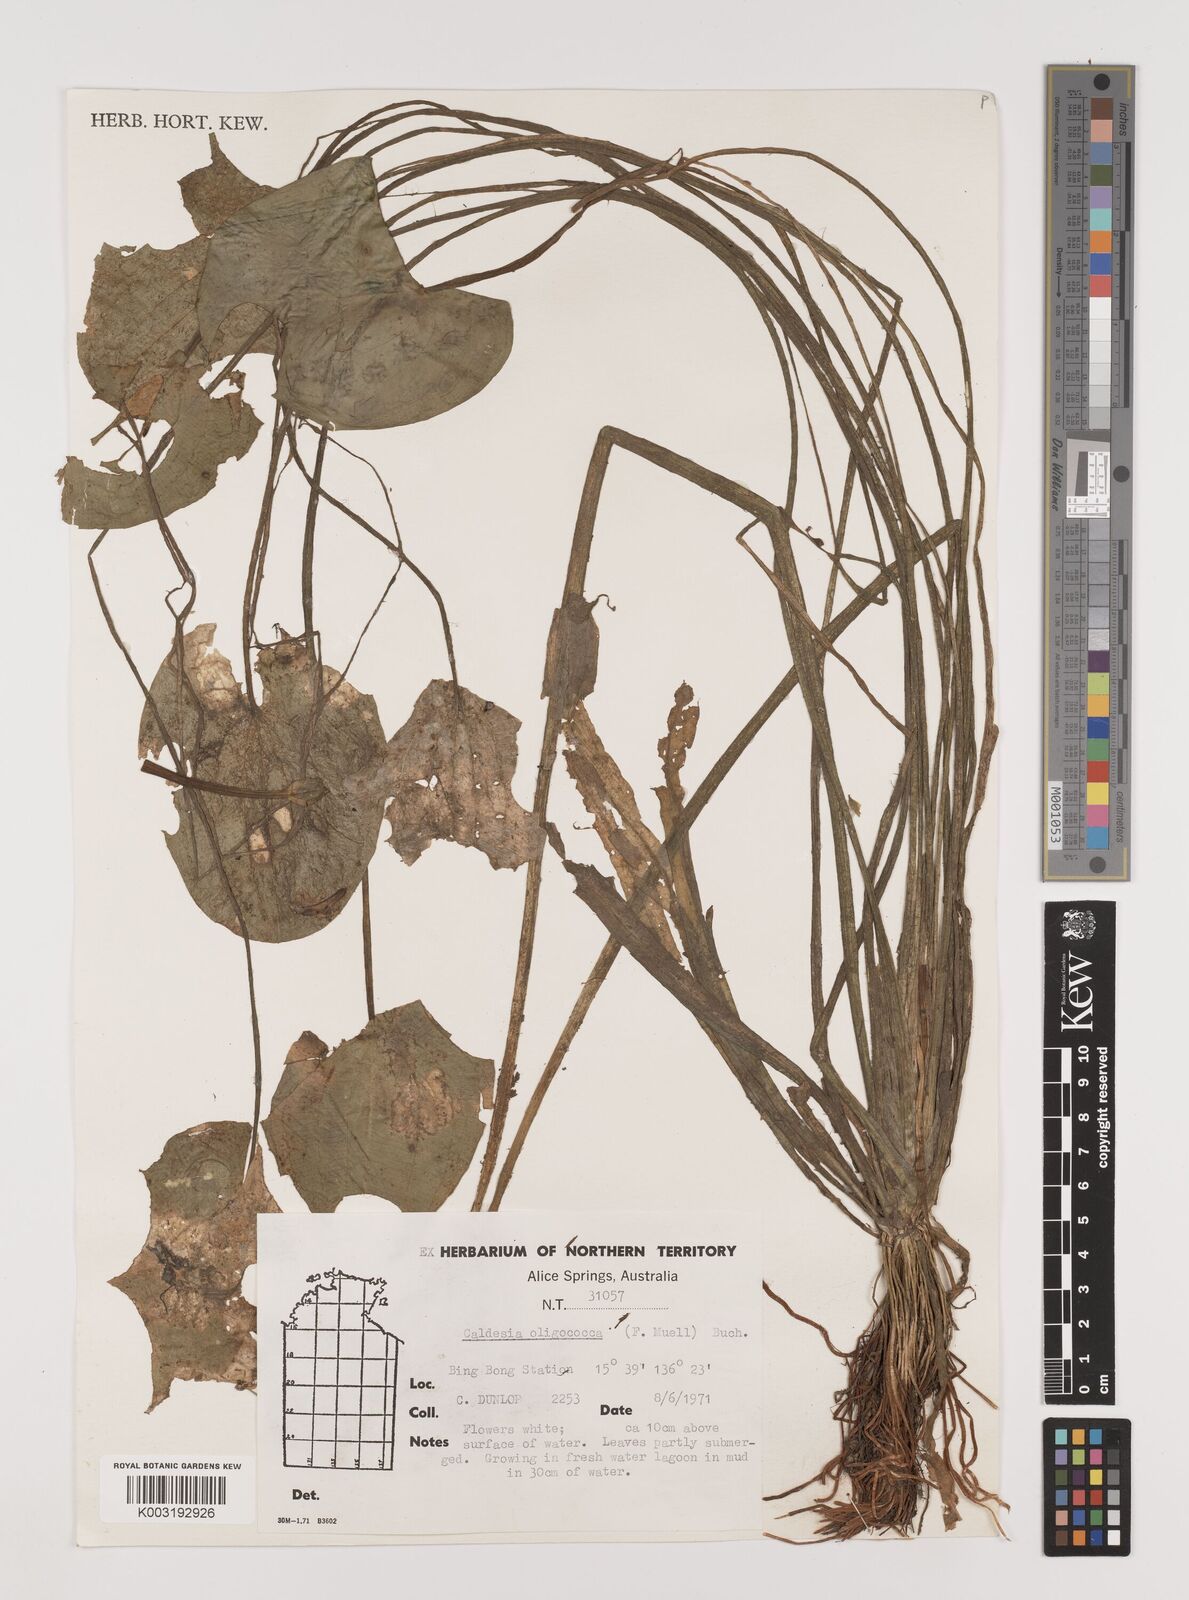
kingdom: Plantae
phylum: Tracheophyta
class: Liliopsida
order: Alismatales
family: Alismataceae
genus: Albidella
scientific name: Albidella oligococca
